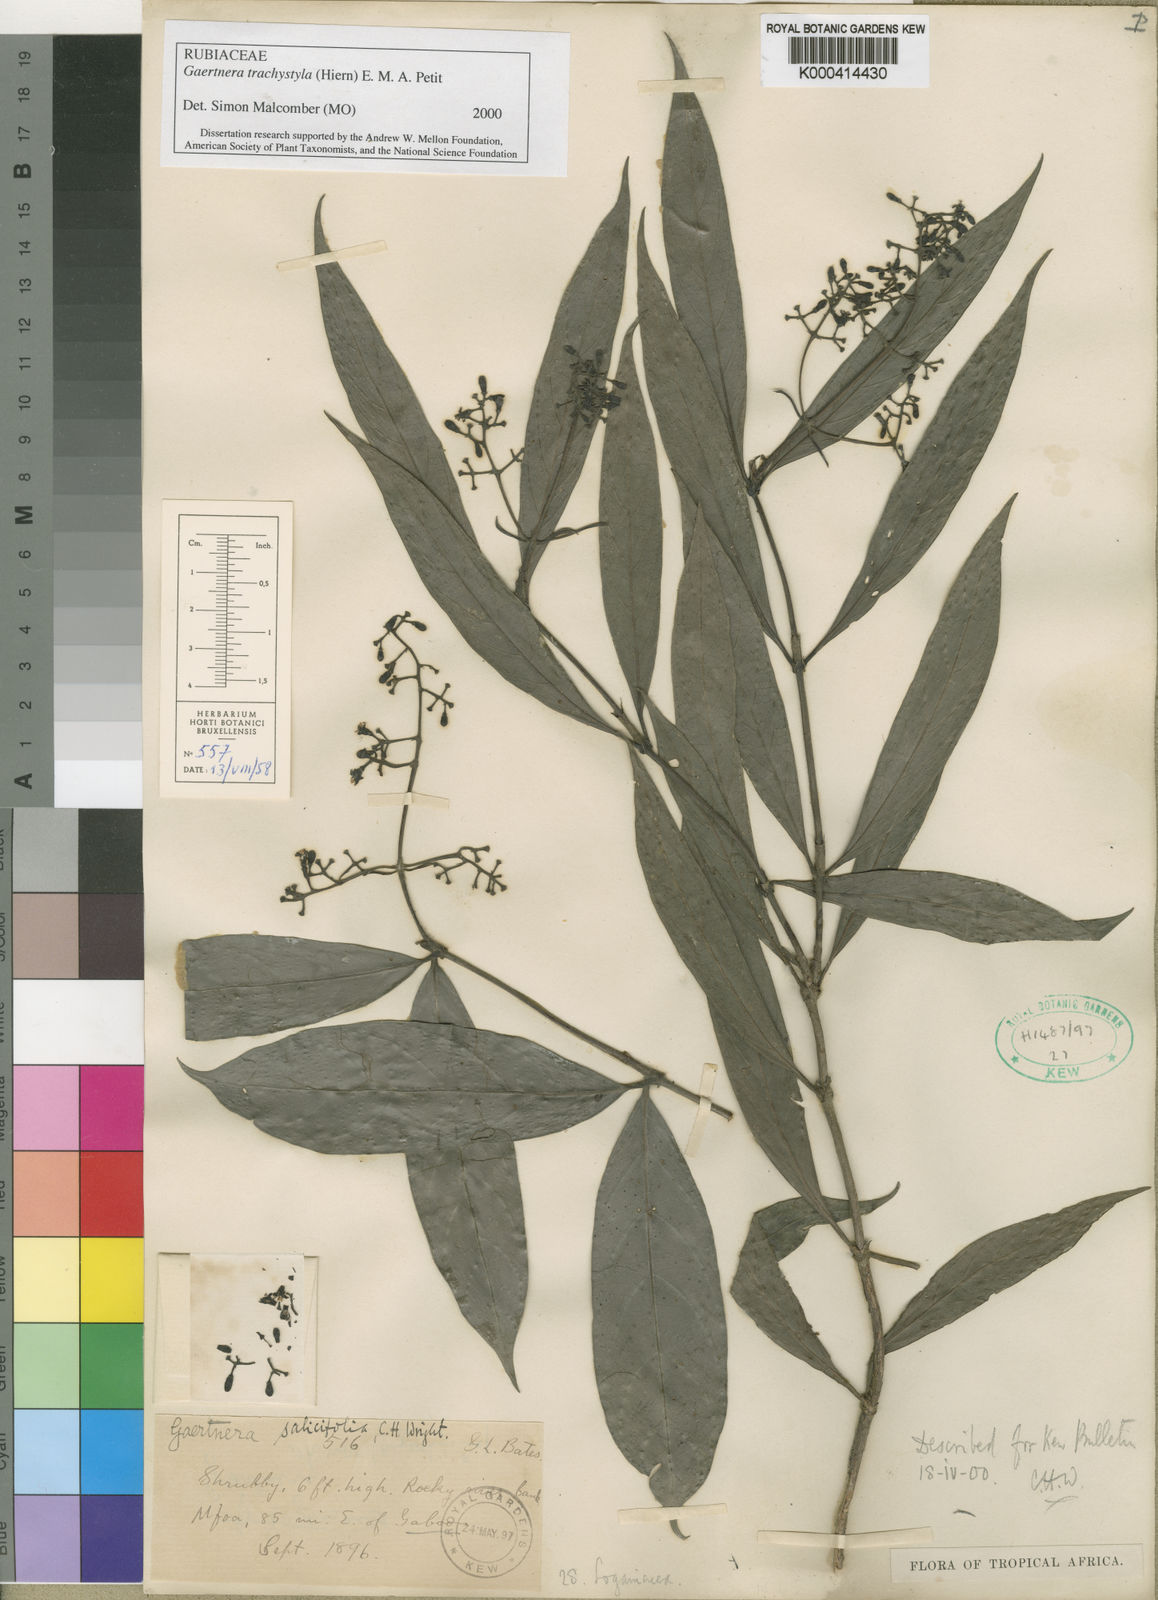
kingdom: Plantae
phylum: Tracheophyta
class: Magnoliopsida
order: Gentianales
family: Rubiaceae
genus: Gaertnera
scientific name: Gaertnera trachystyla
